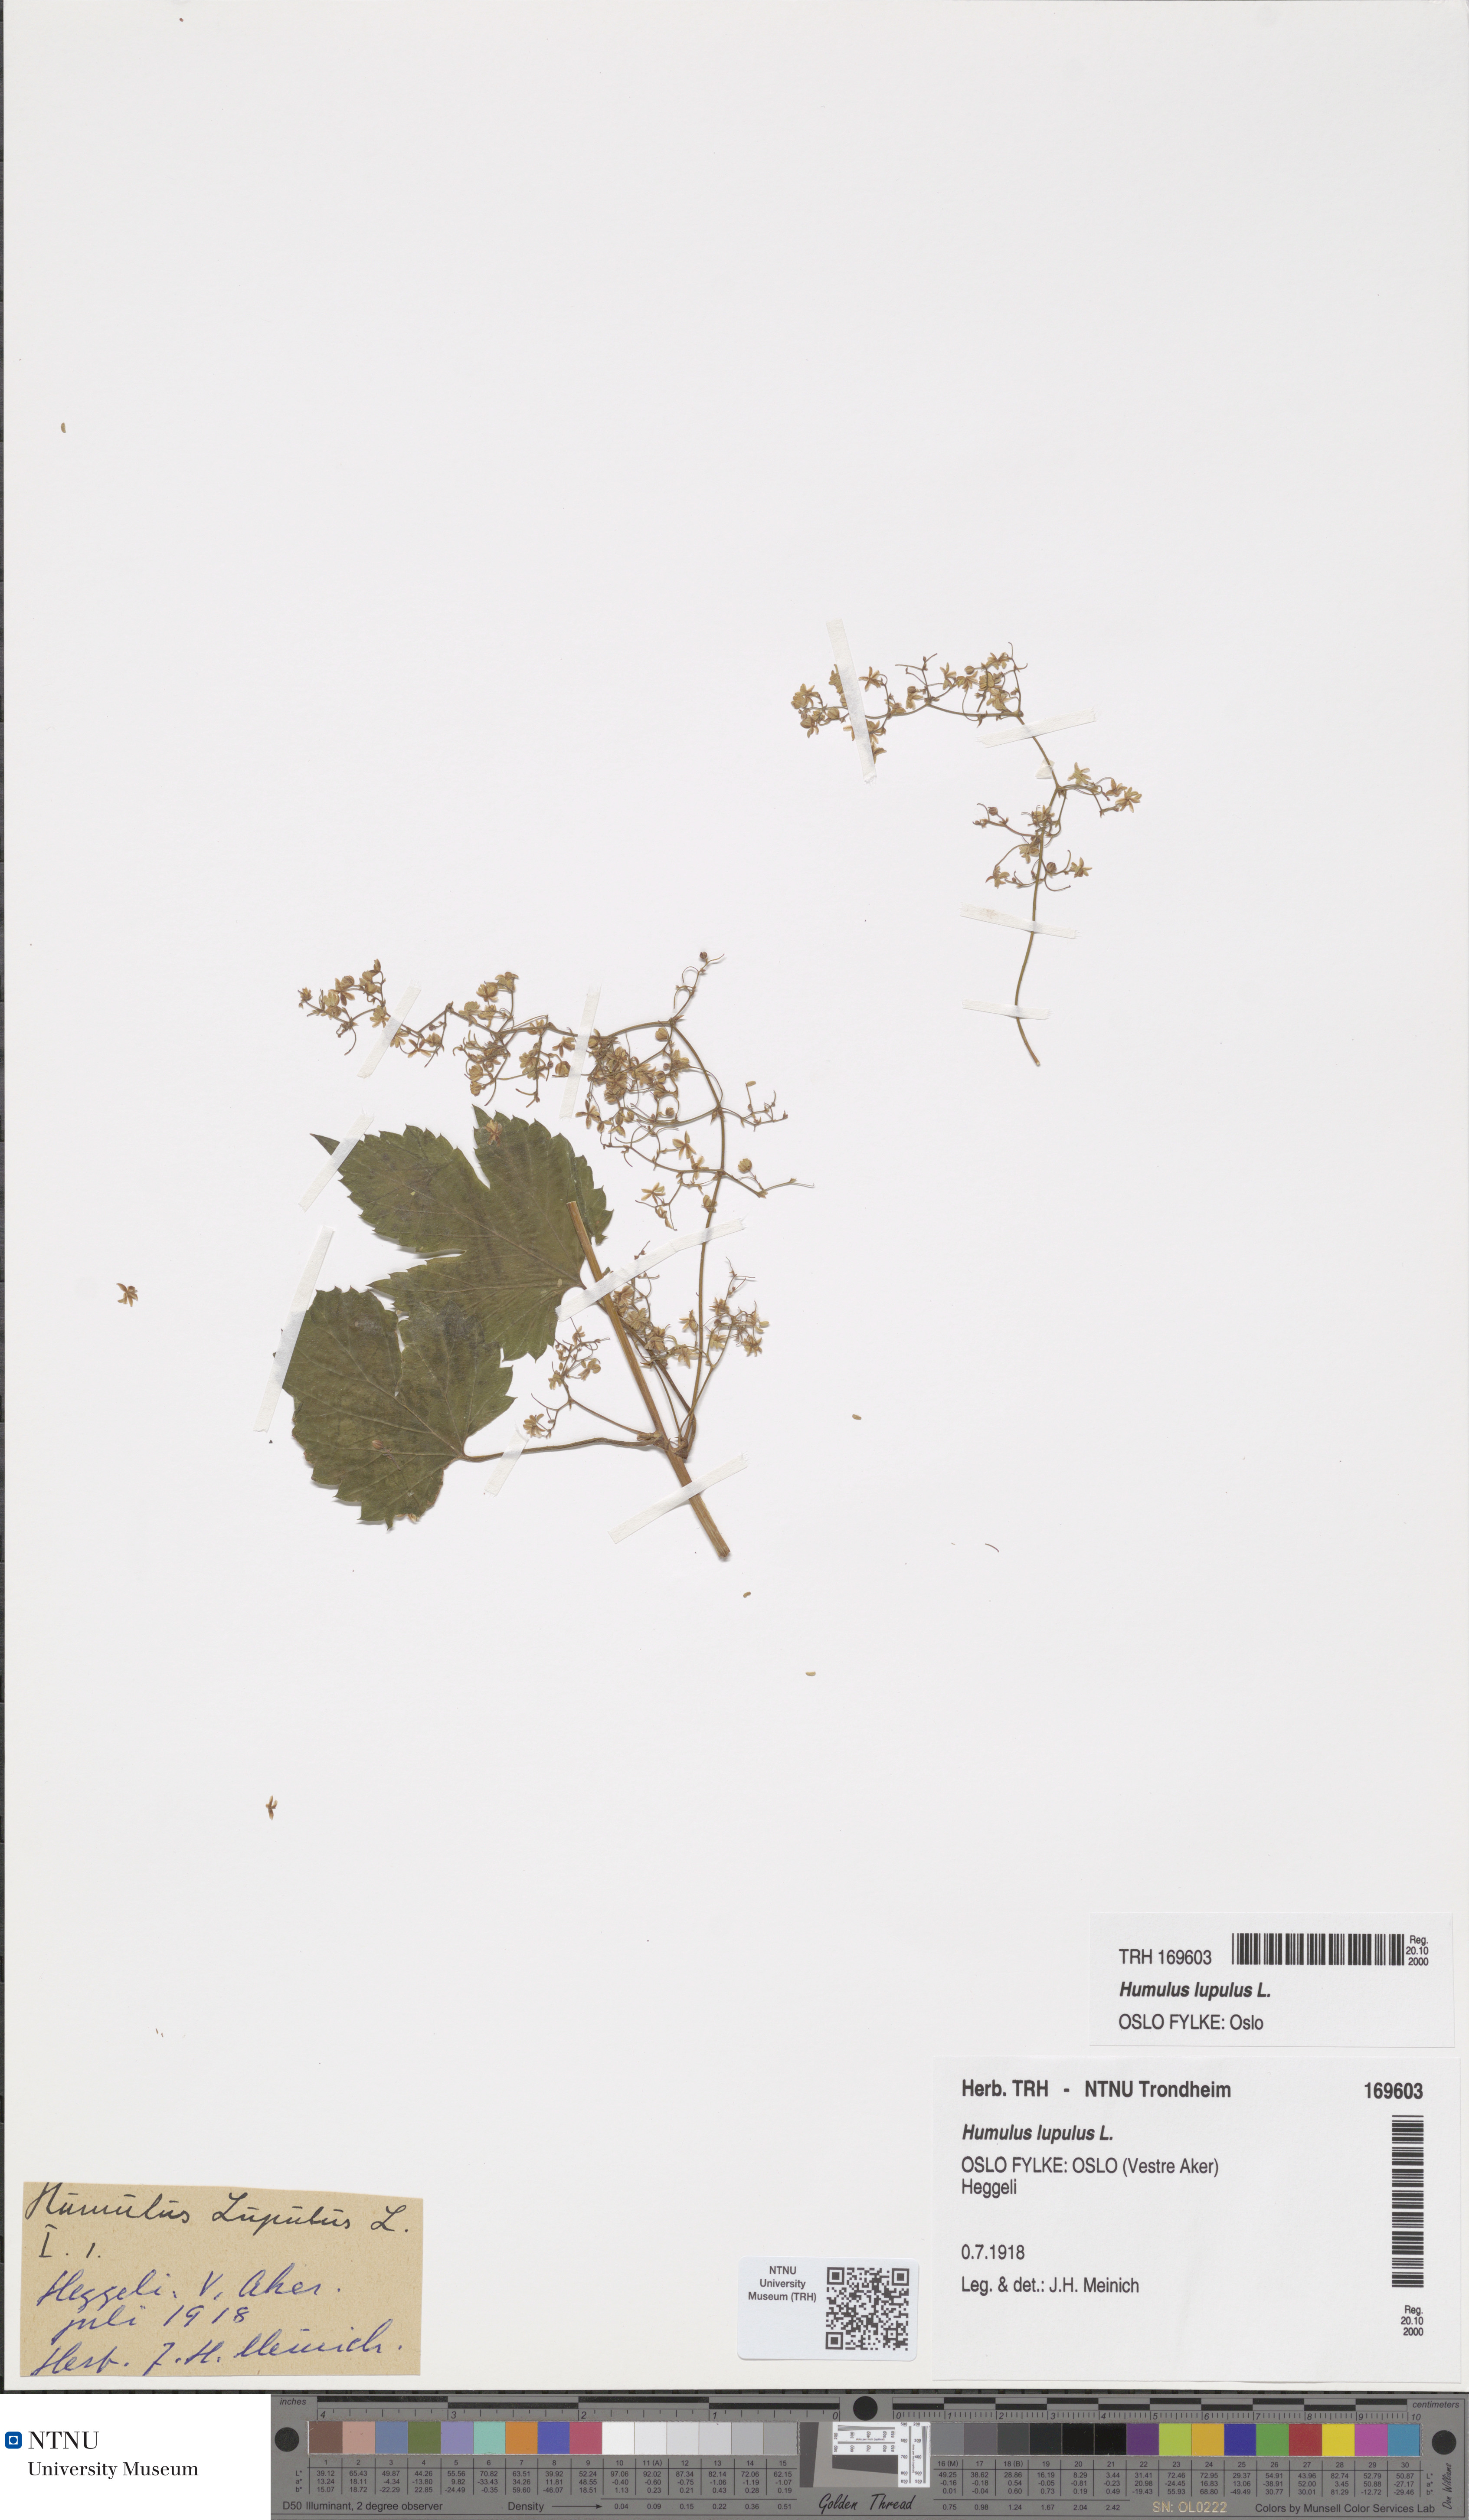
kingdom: Plantae
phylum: Tracheophyta
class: Magnoliopsida
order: Rosales
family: Cannabaceae
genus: Humulus
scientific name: Humulus lupulus
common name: Hop
